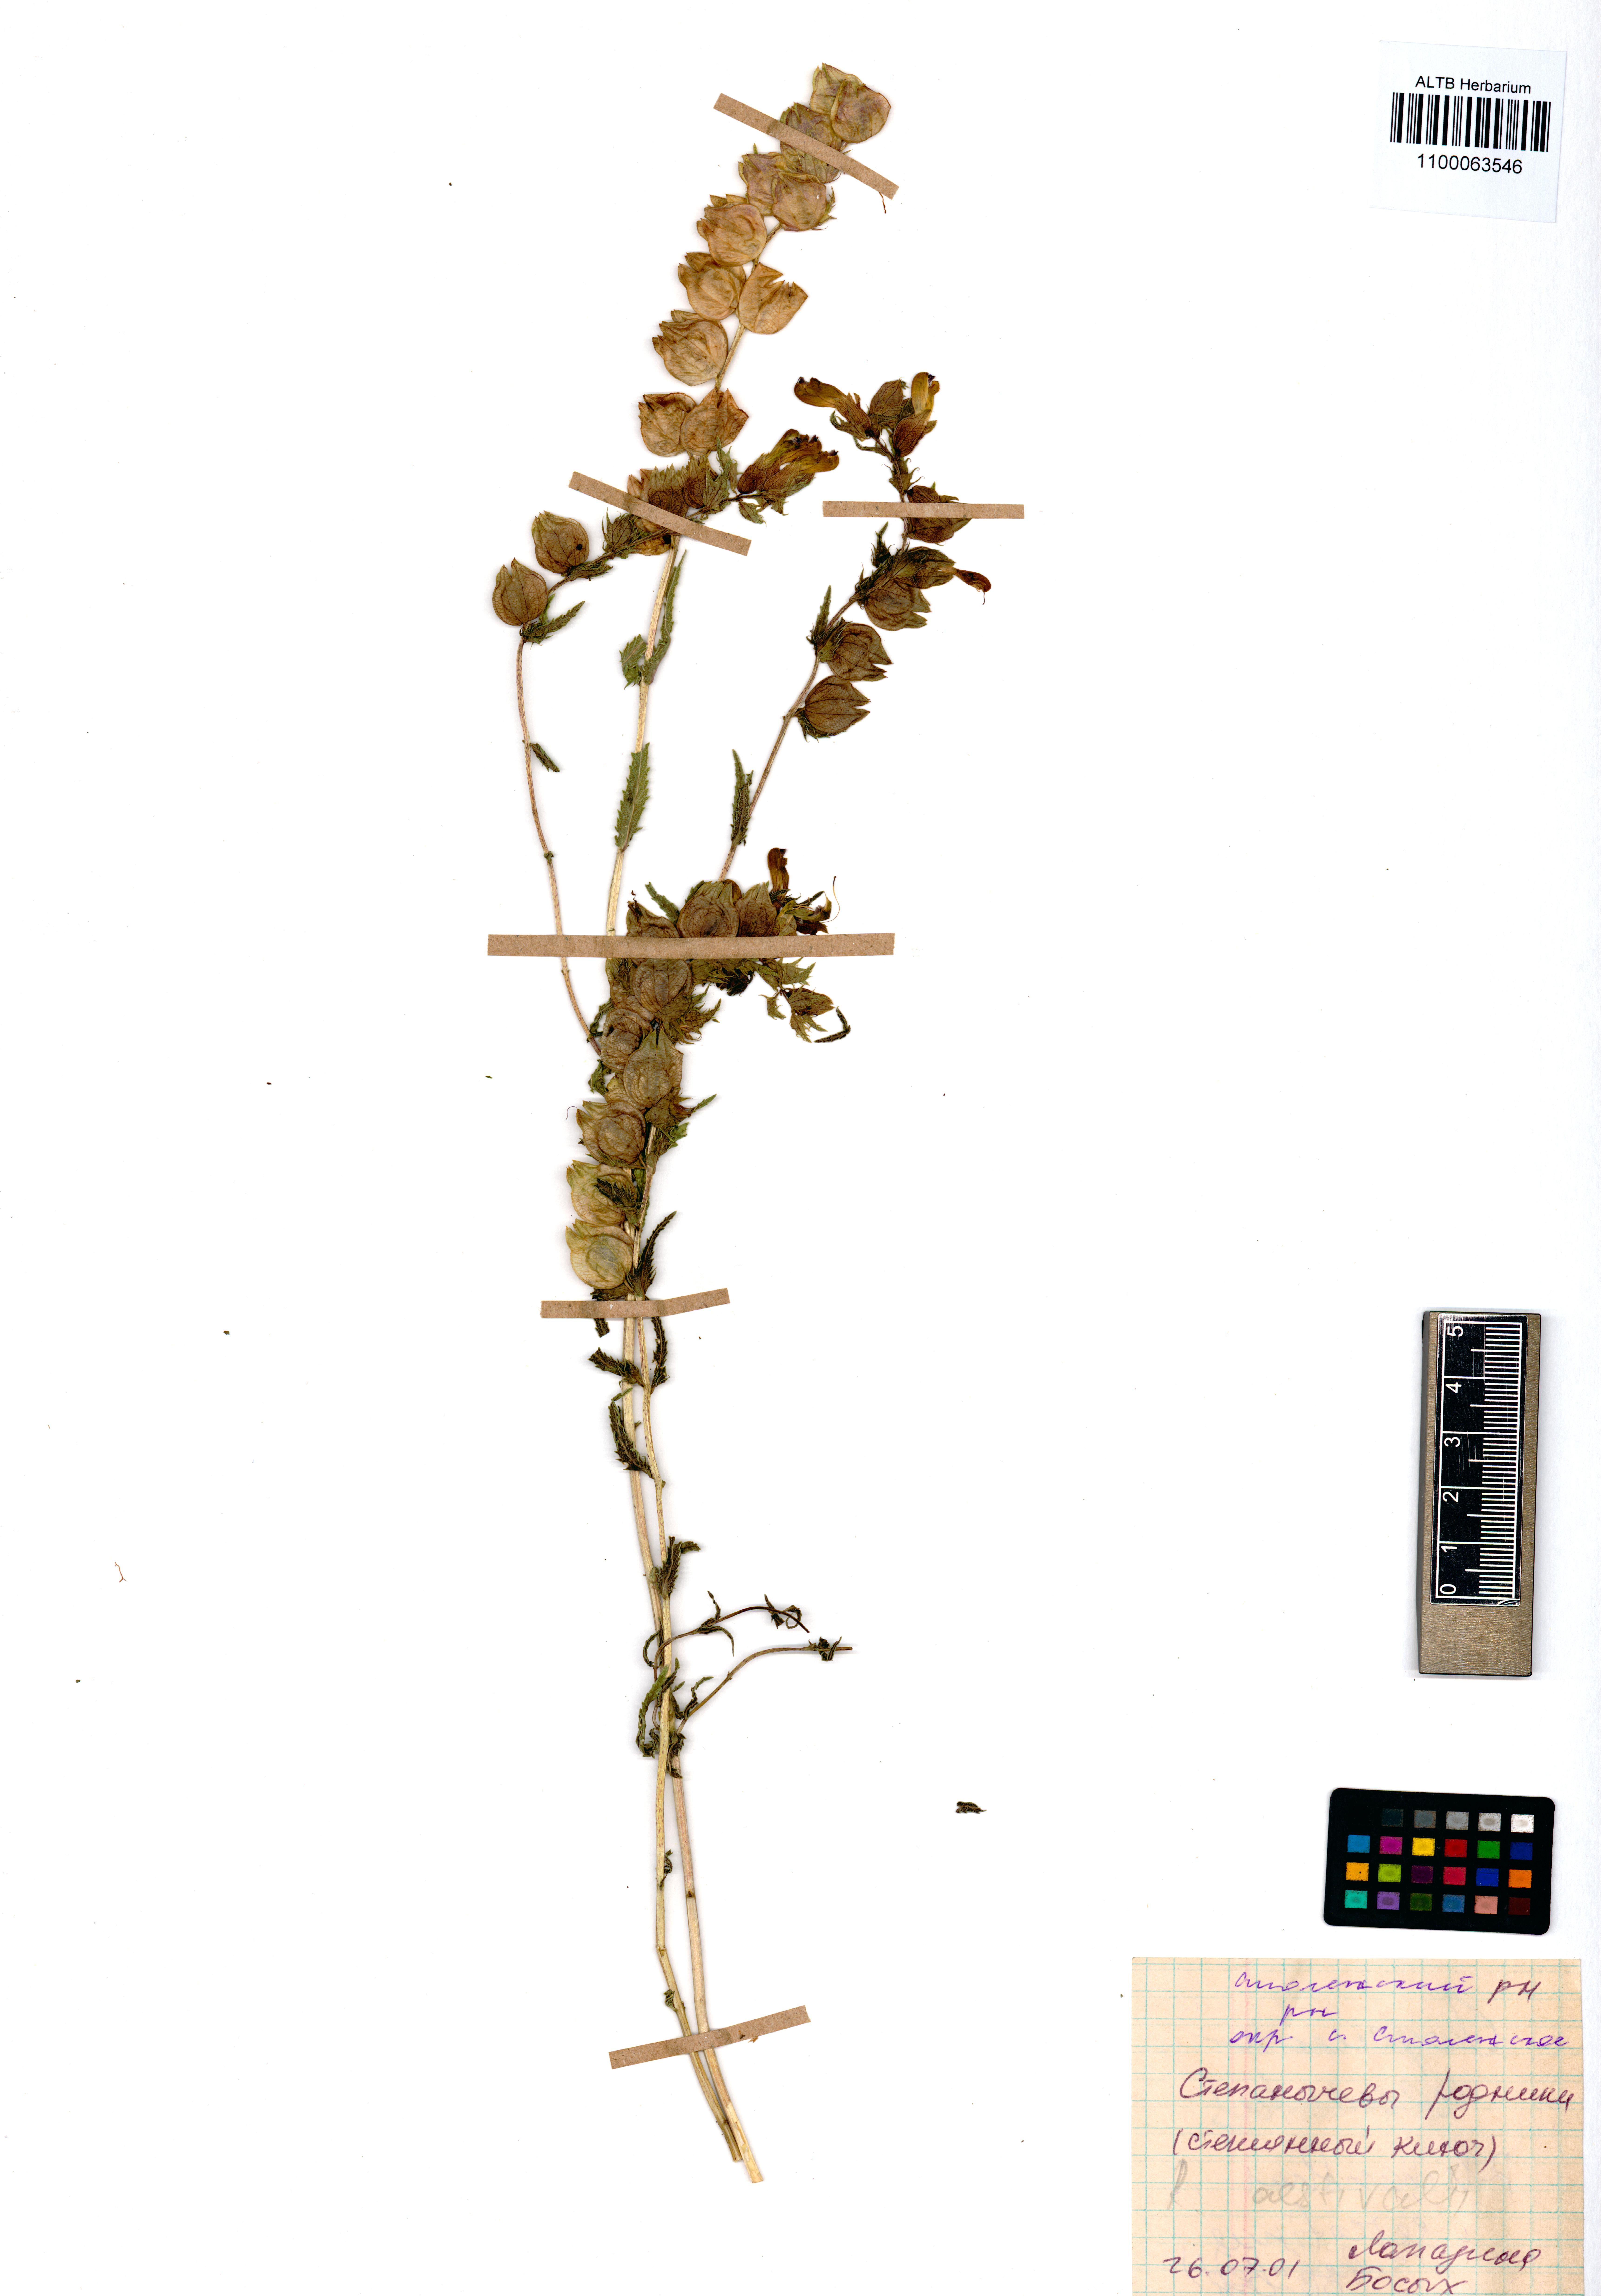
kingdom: Plantae
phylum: Tracheophyta
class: Magnoliopsida
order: Lamiales
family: Orobanchaceae
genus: Rhinanthus
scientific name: Rhinanthus serotinus
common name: Late-flowering yellow rattle
